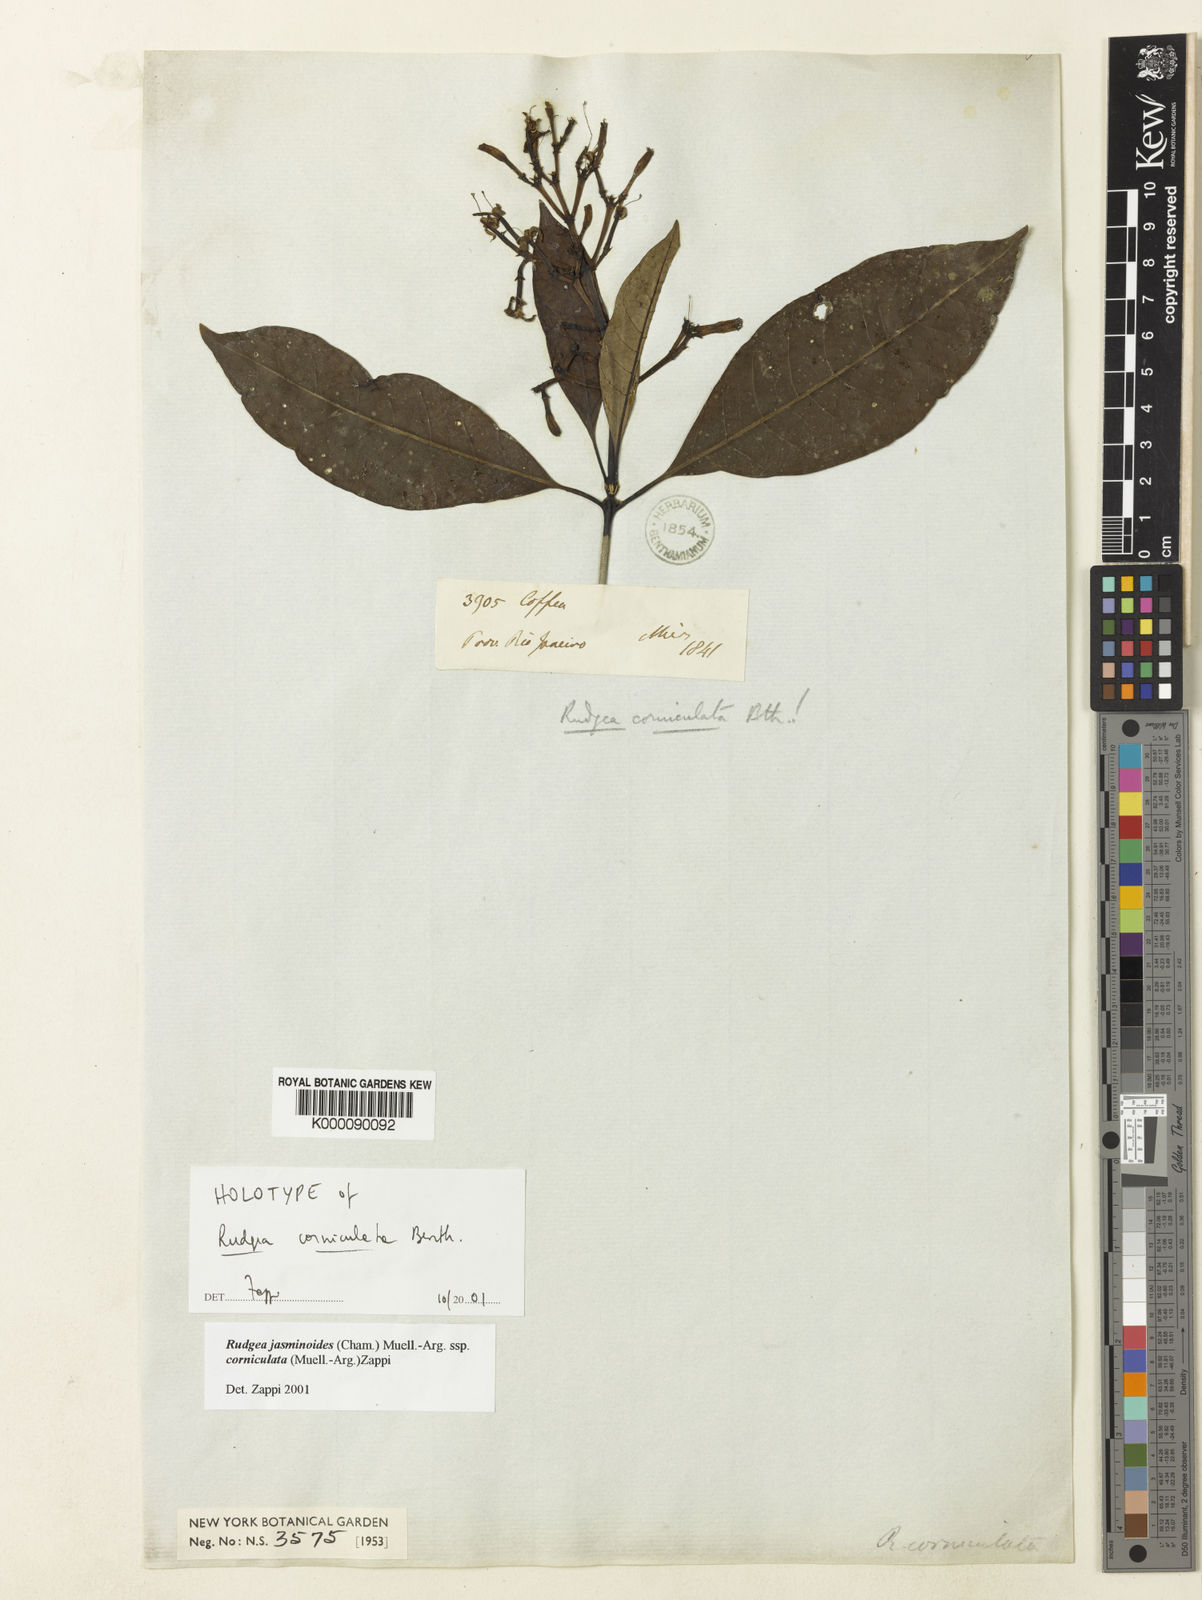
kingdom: Plantae
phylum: Tracheophyta
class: Magnoliopsida
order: Gentianales
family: Rubiaceae
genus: Rudgea
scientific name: Rudgea
